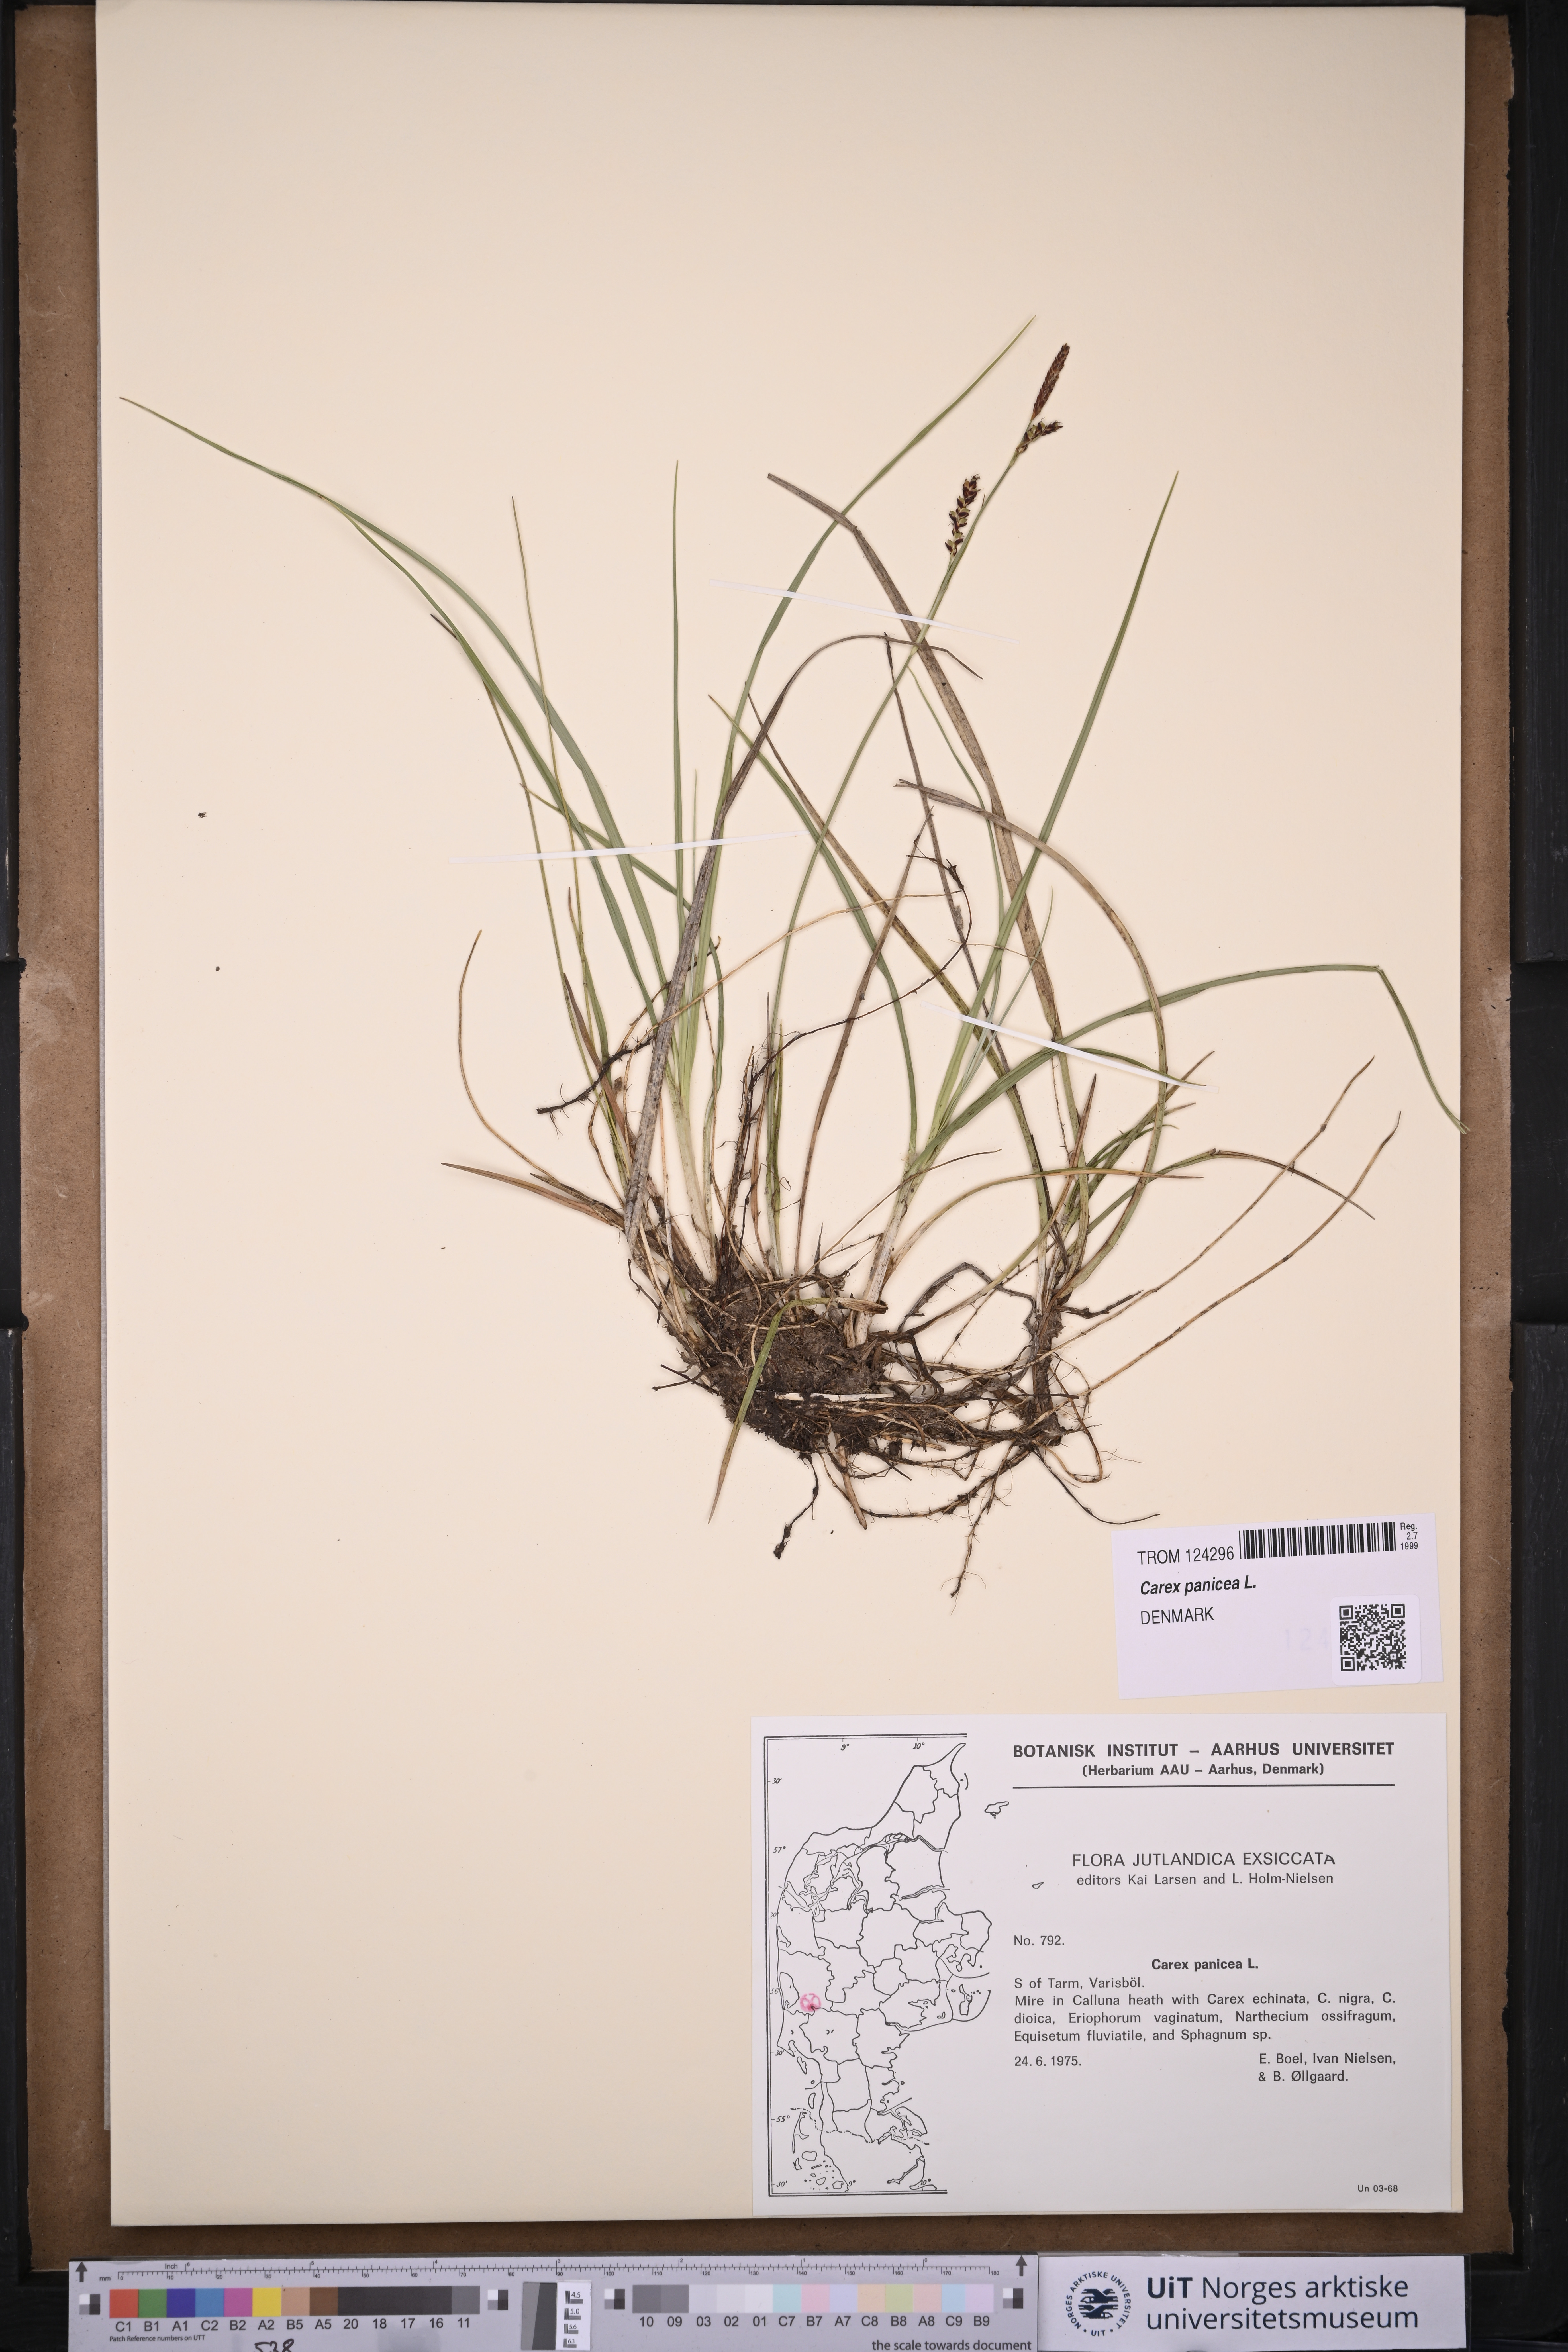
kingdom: Plantae
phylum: Tracheophyta
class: Liliopsida
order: Poales
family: Cyperaceae
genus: Carex
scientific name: Carex panicea
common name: Carnation sedge
